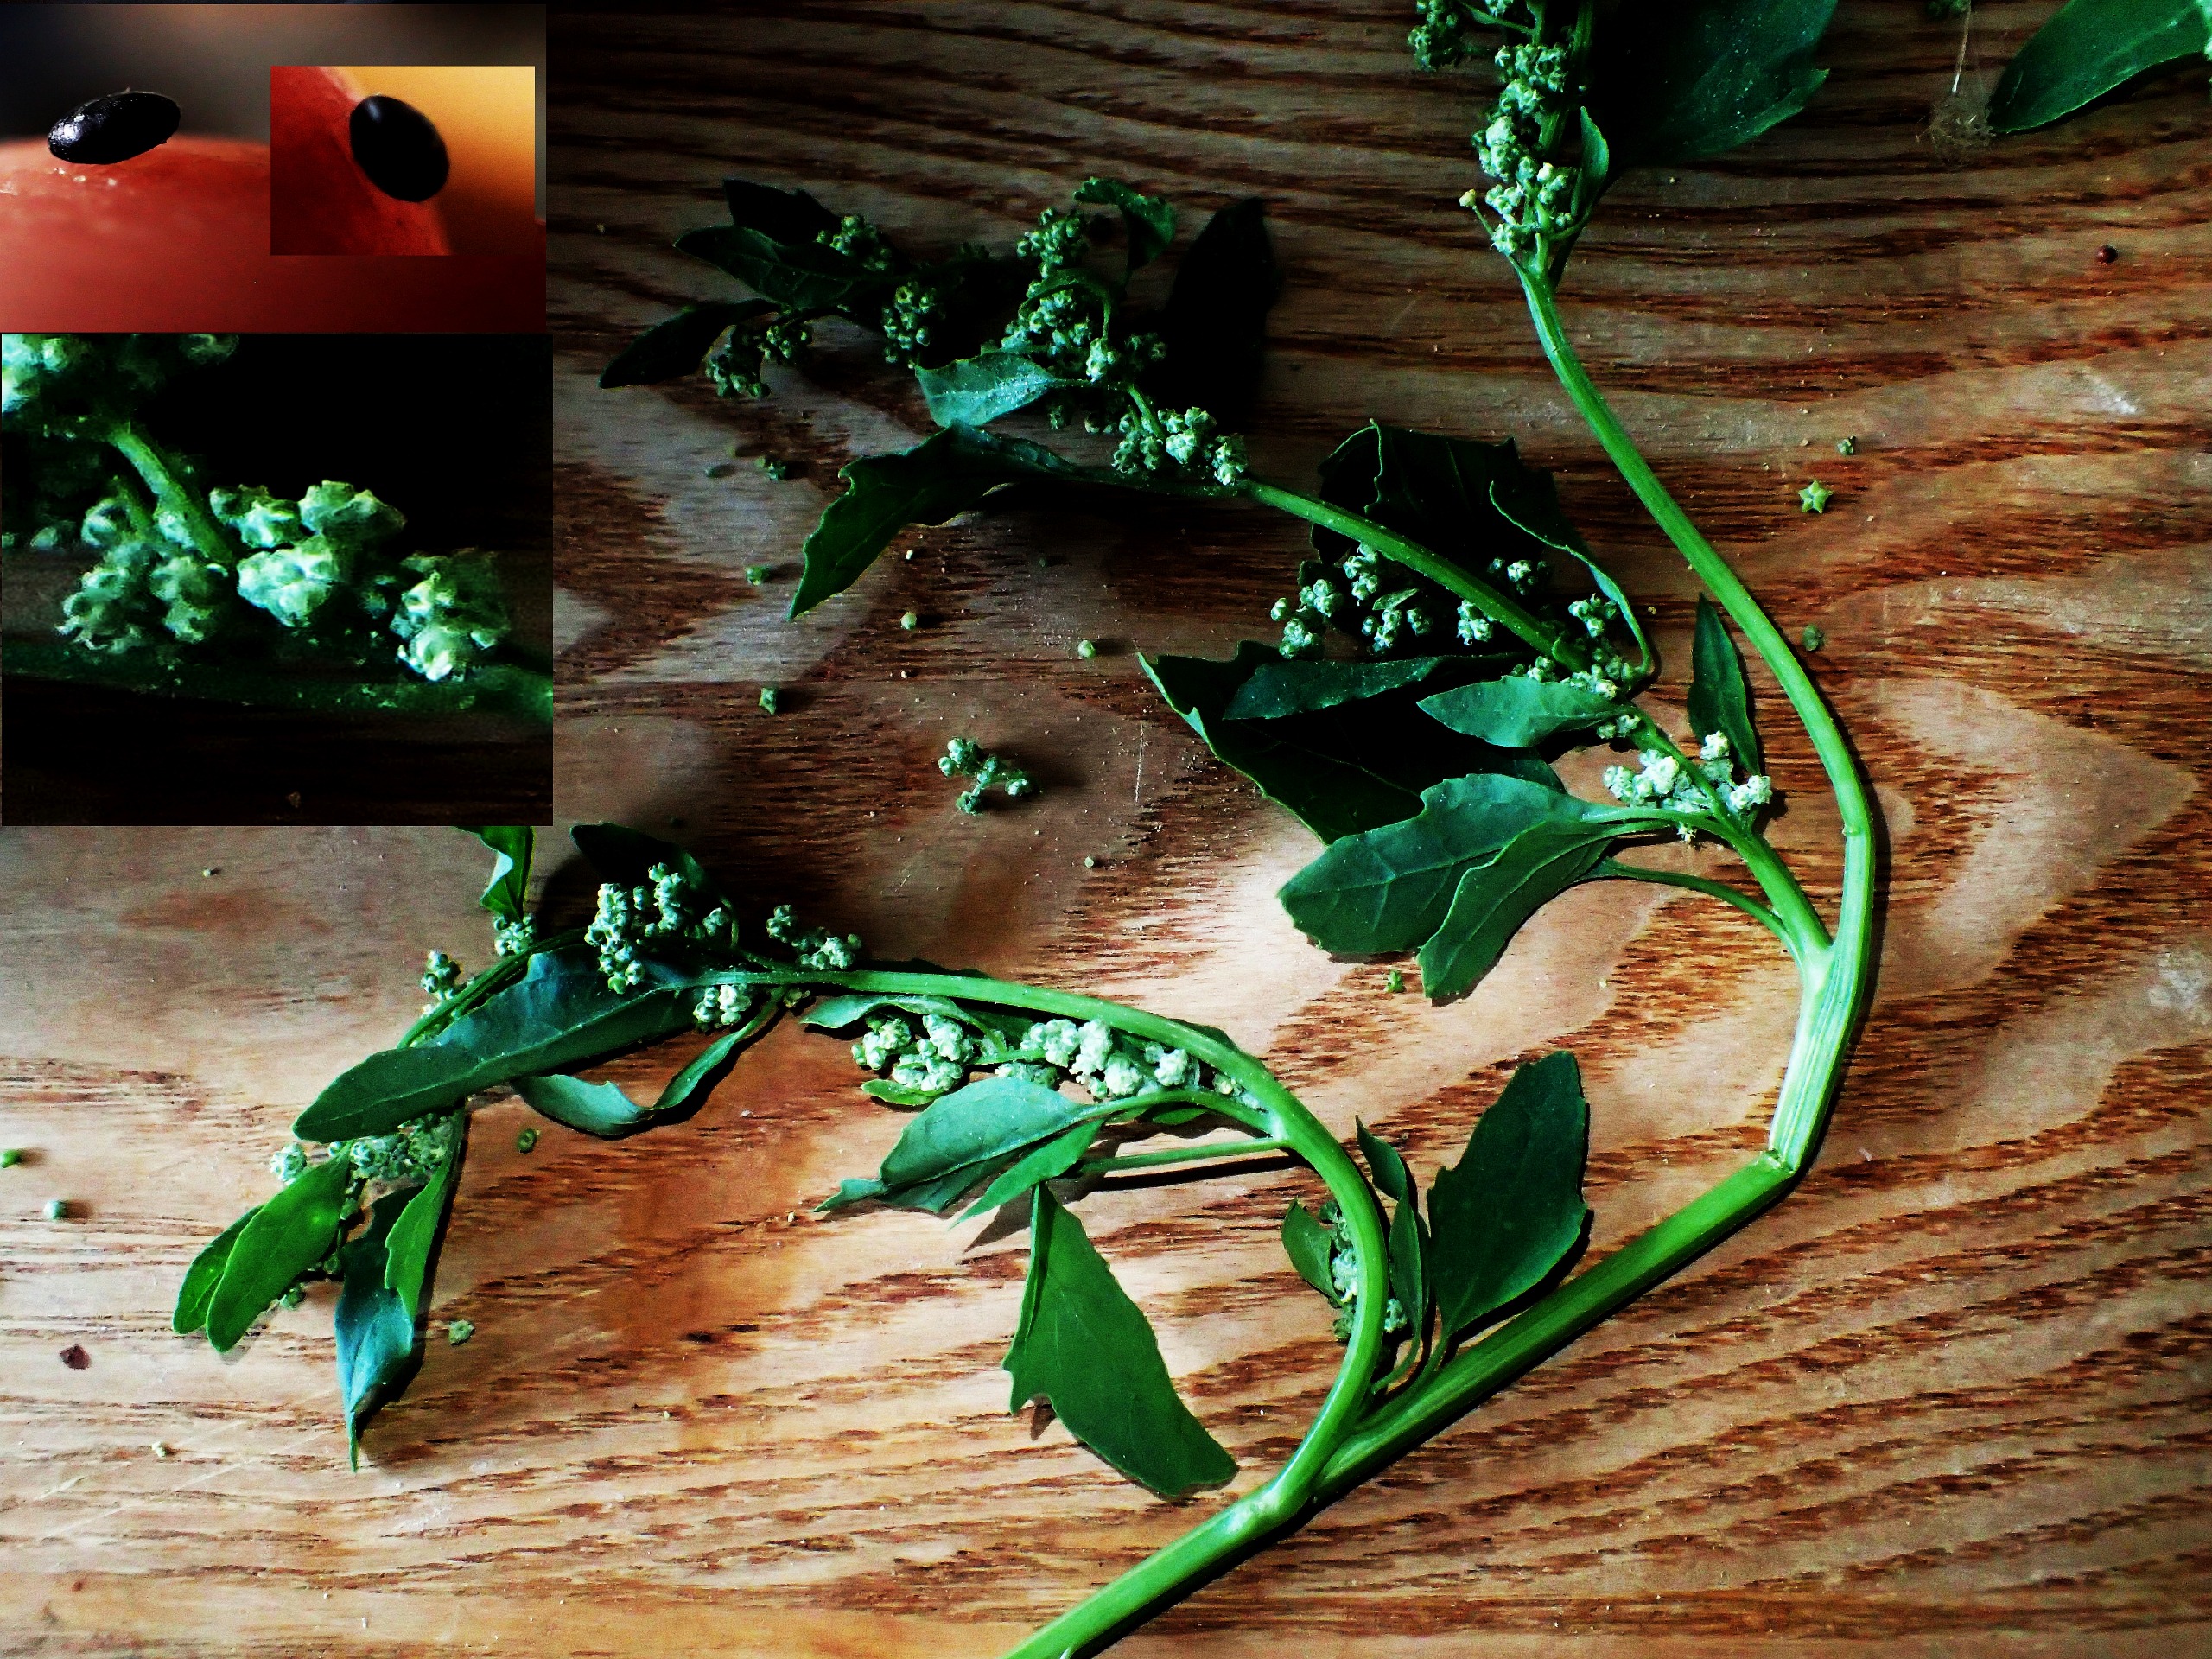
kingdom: Plantae
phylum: Tracheophyta
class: Magnoliopsida
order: Caryophyllales
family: Amaranthaceae
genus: Chenopodium
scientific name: Chenopodium suecicum
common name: Grøn gåsefod
